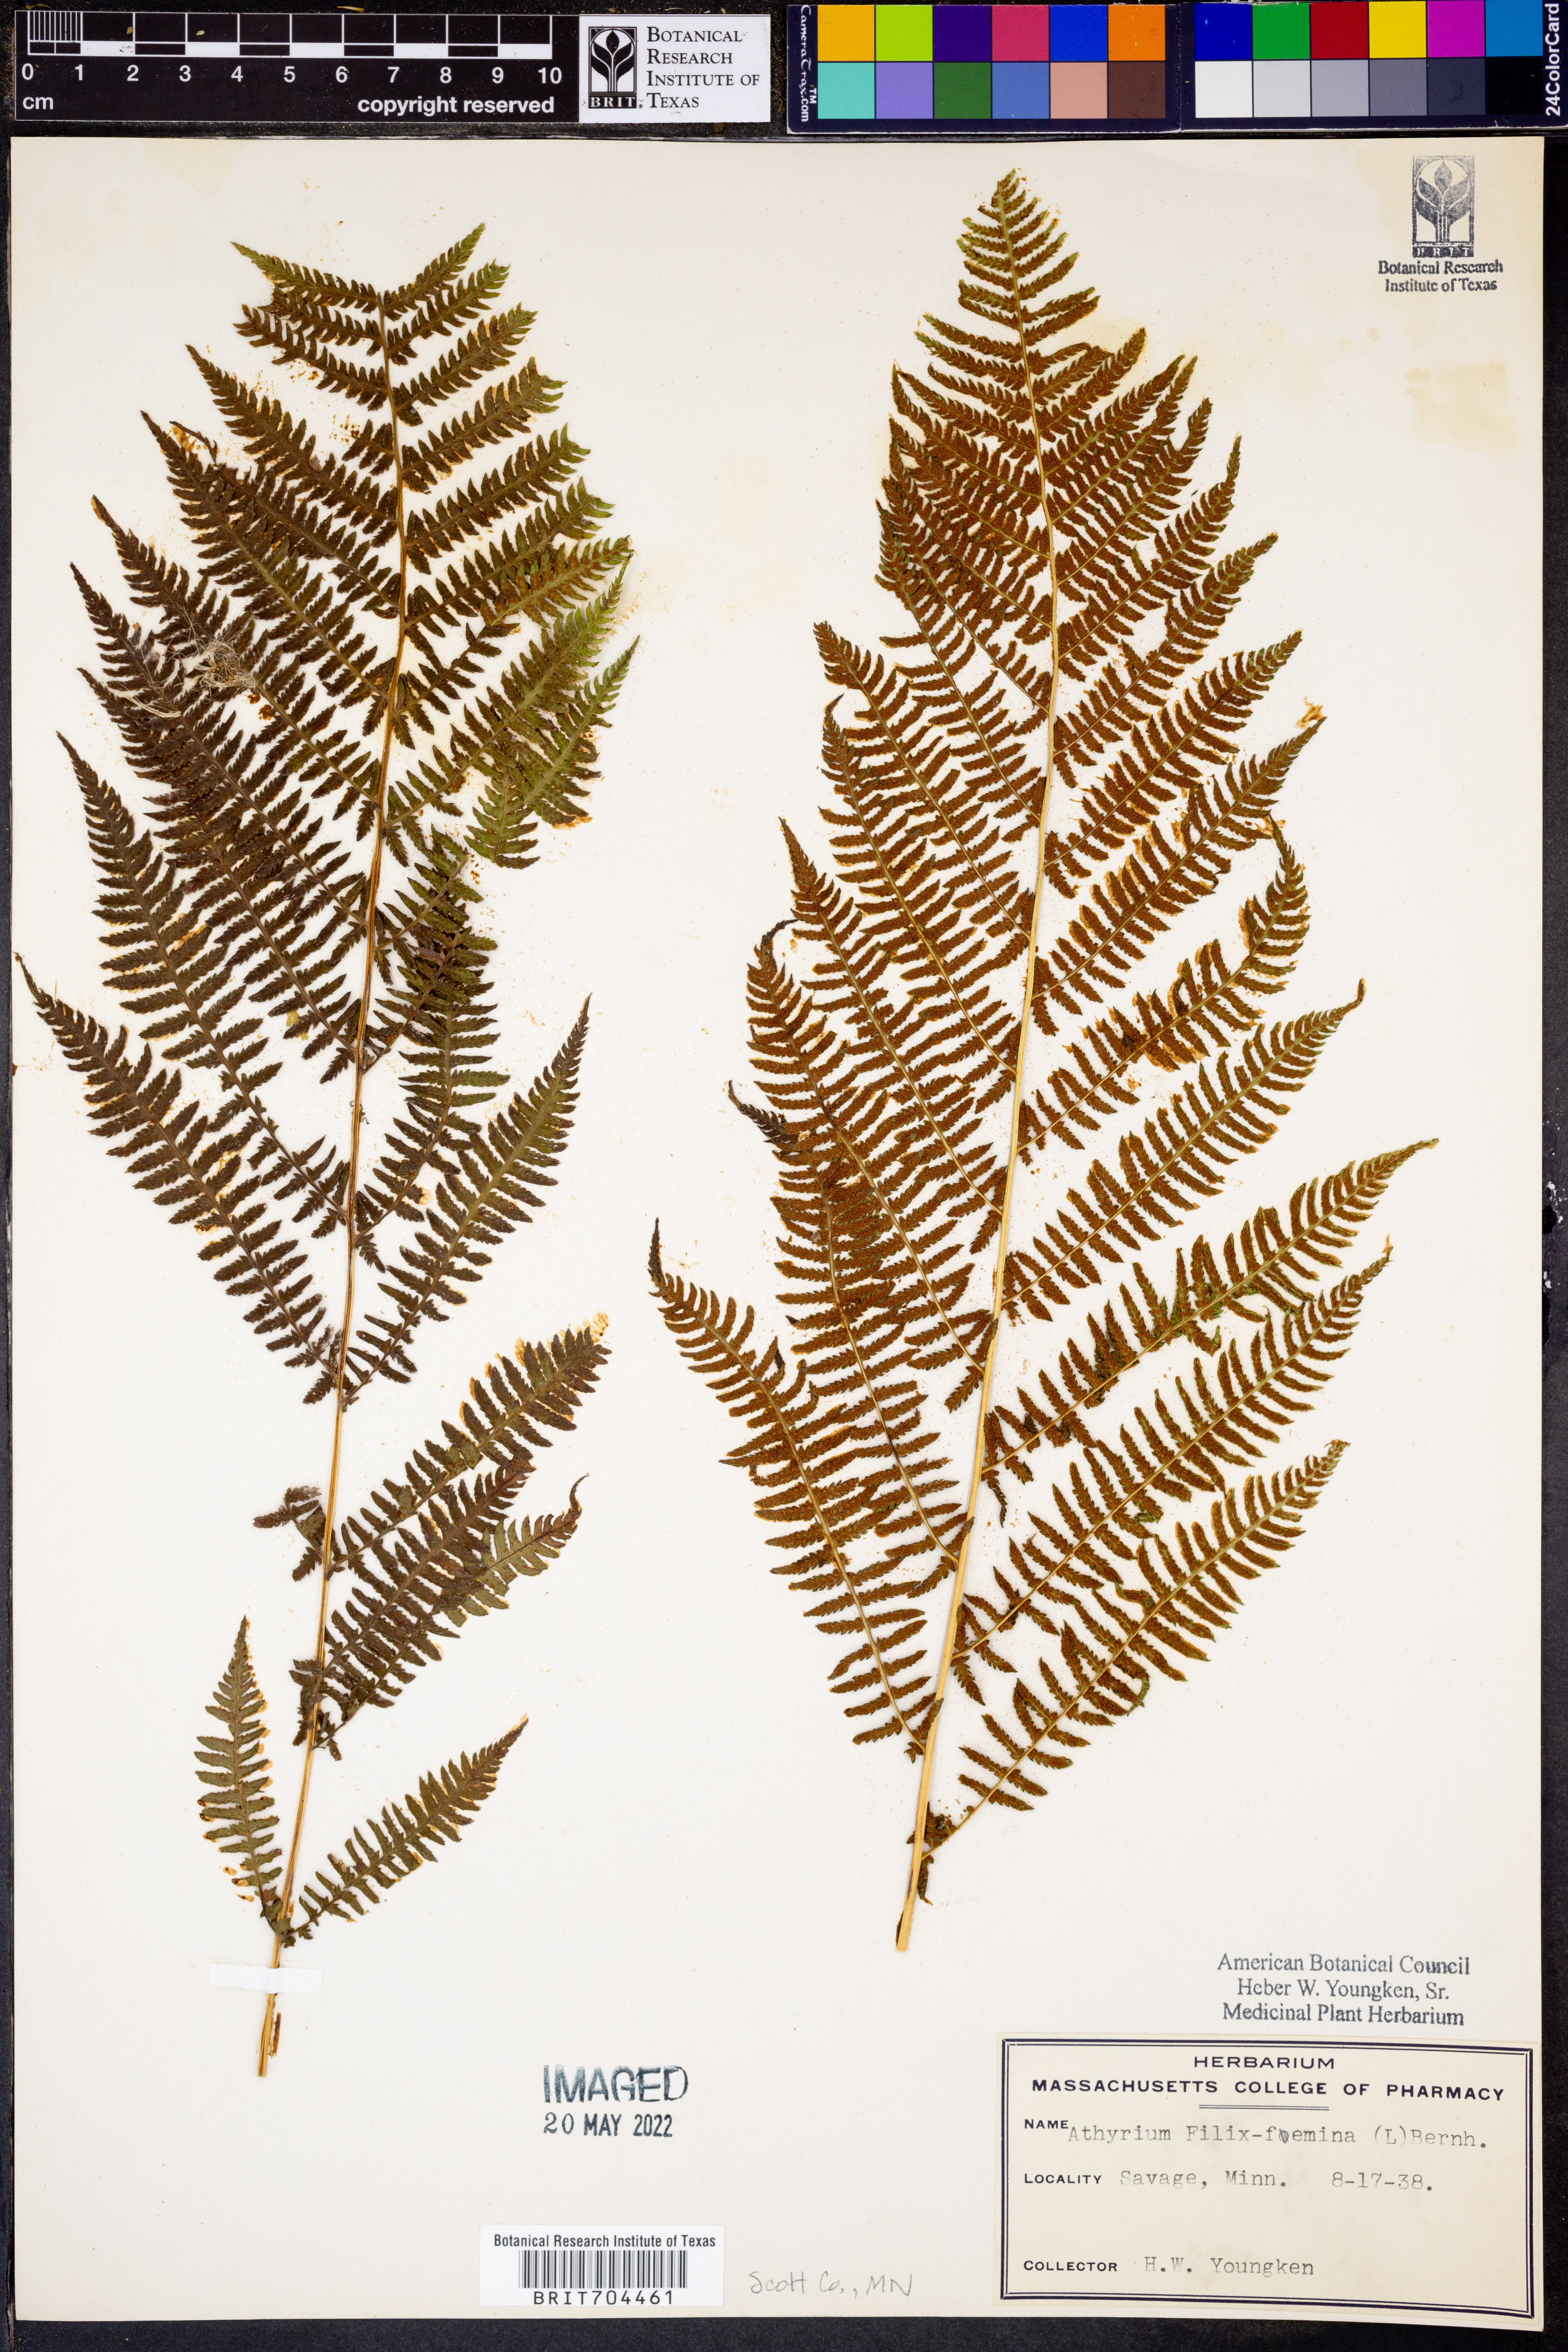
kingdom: Plantae
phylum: Tracheophyta
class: Polypodiopsida
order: Polypodiales
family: Athyriaceae
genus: Athyrium
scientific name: Athyrium filix-femina
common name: Lady fern
